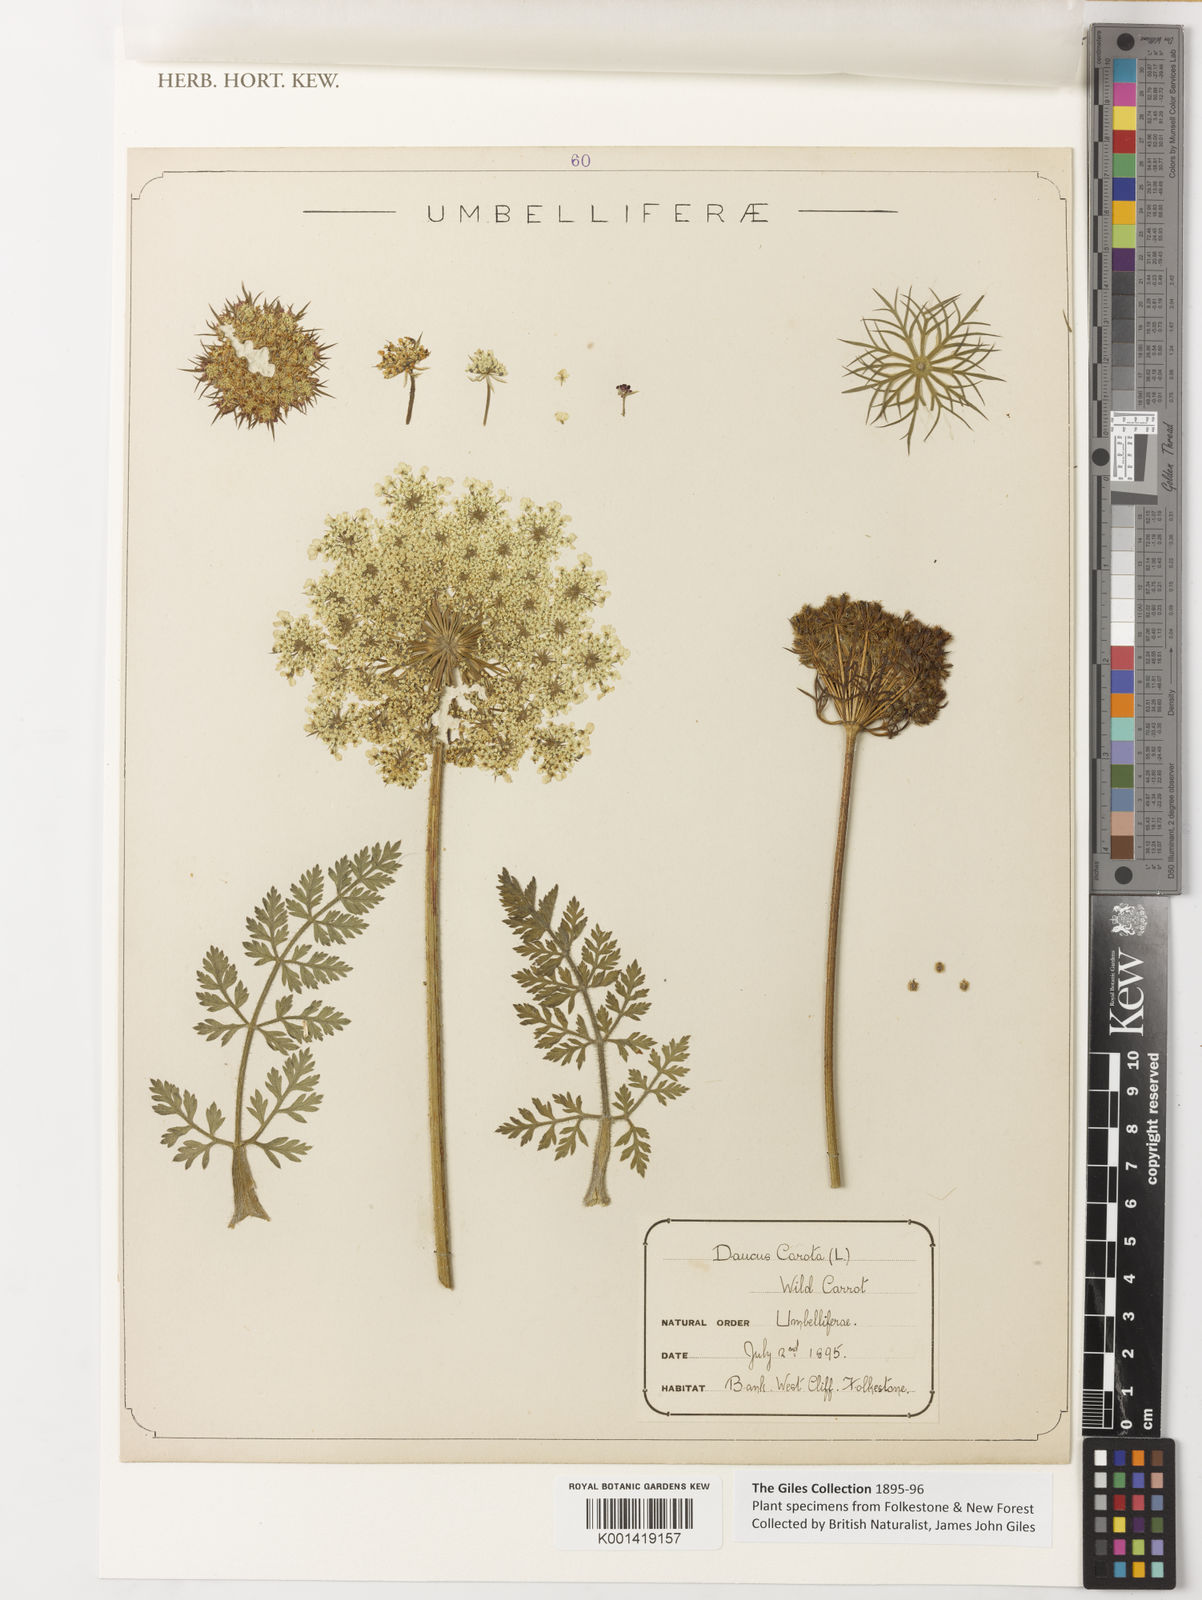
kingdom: Plantae
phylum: Tracheophyta
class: Magnoliopsida
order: Apiales
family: Apiaceae
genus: Daucus
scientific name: Daucus
